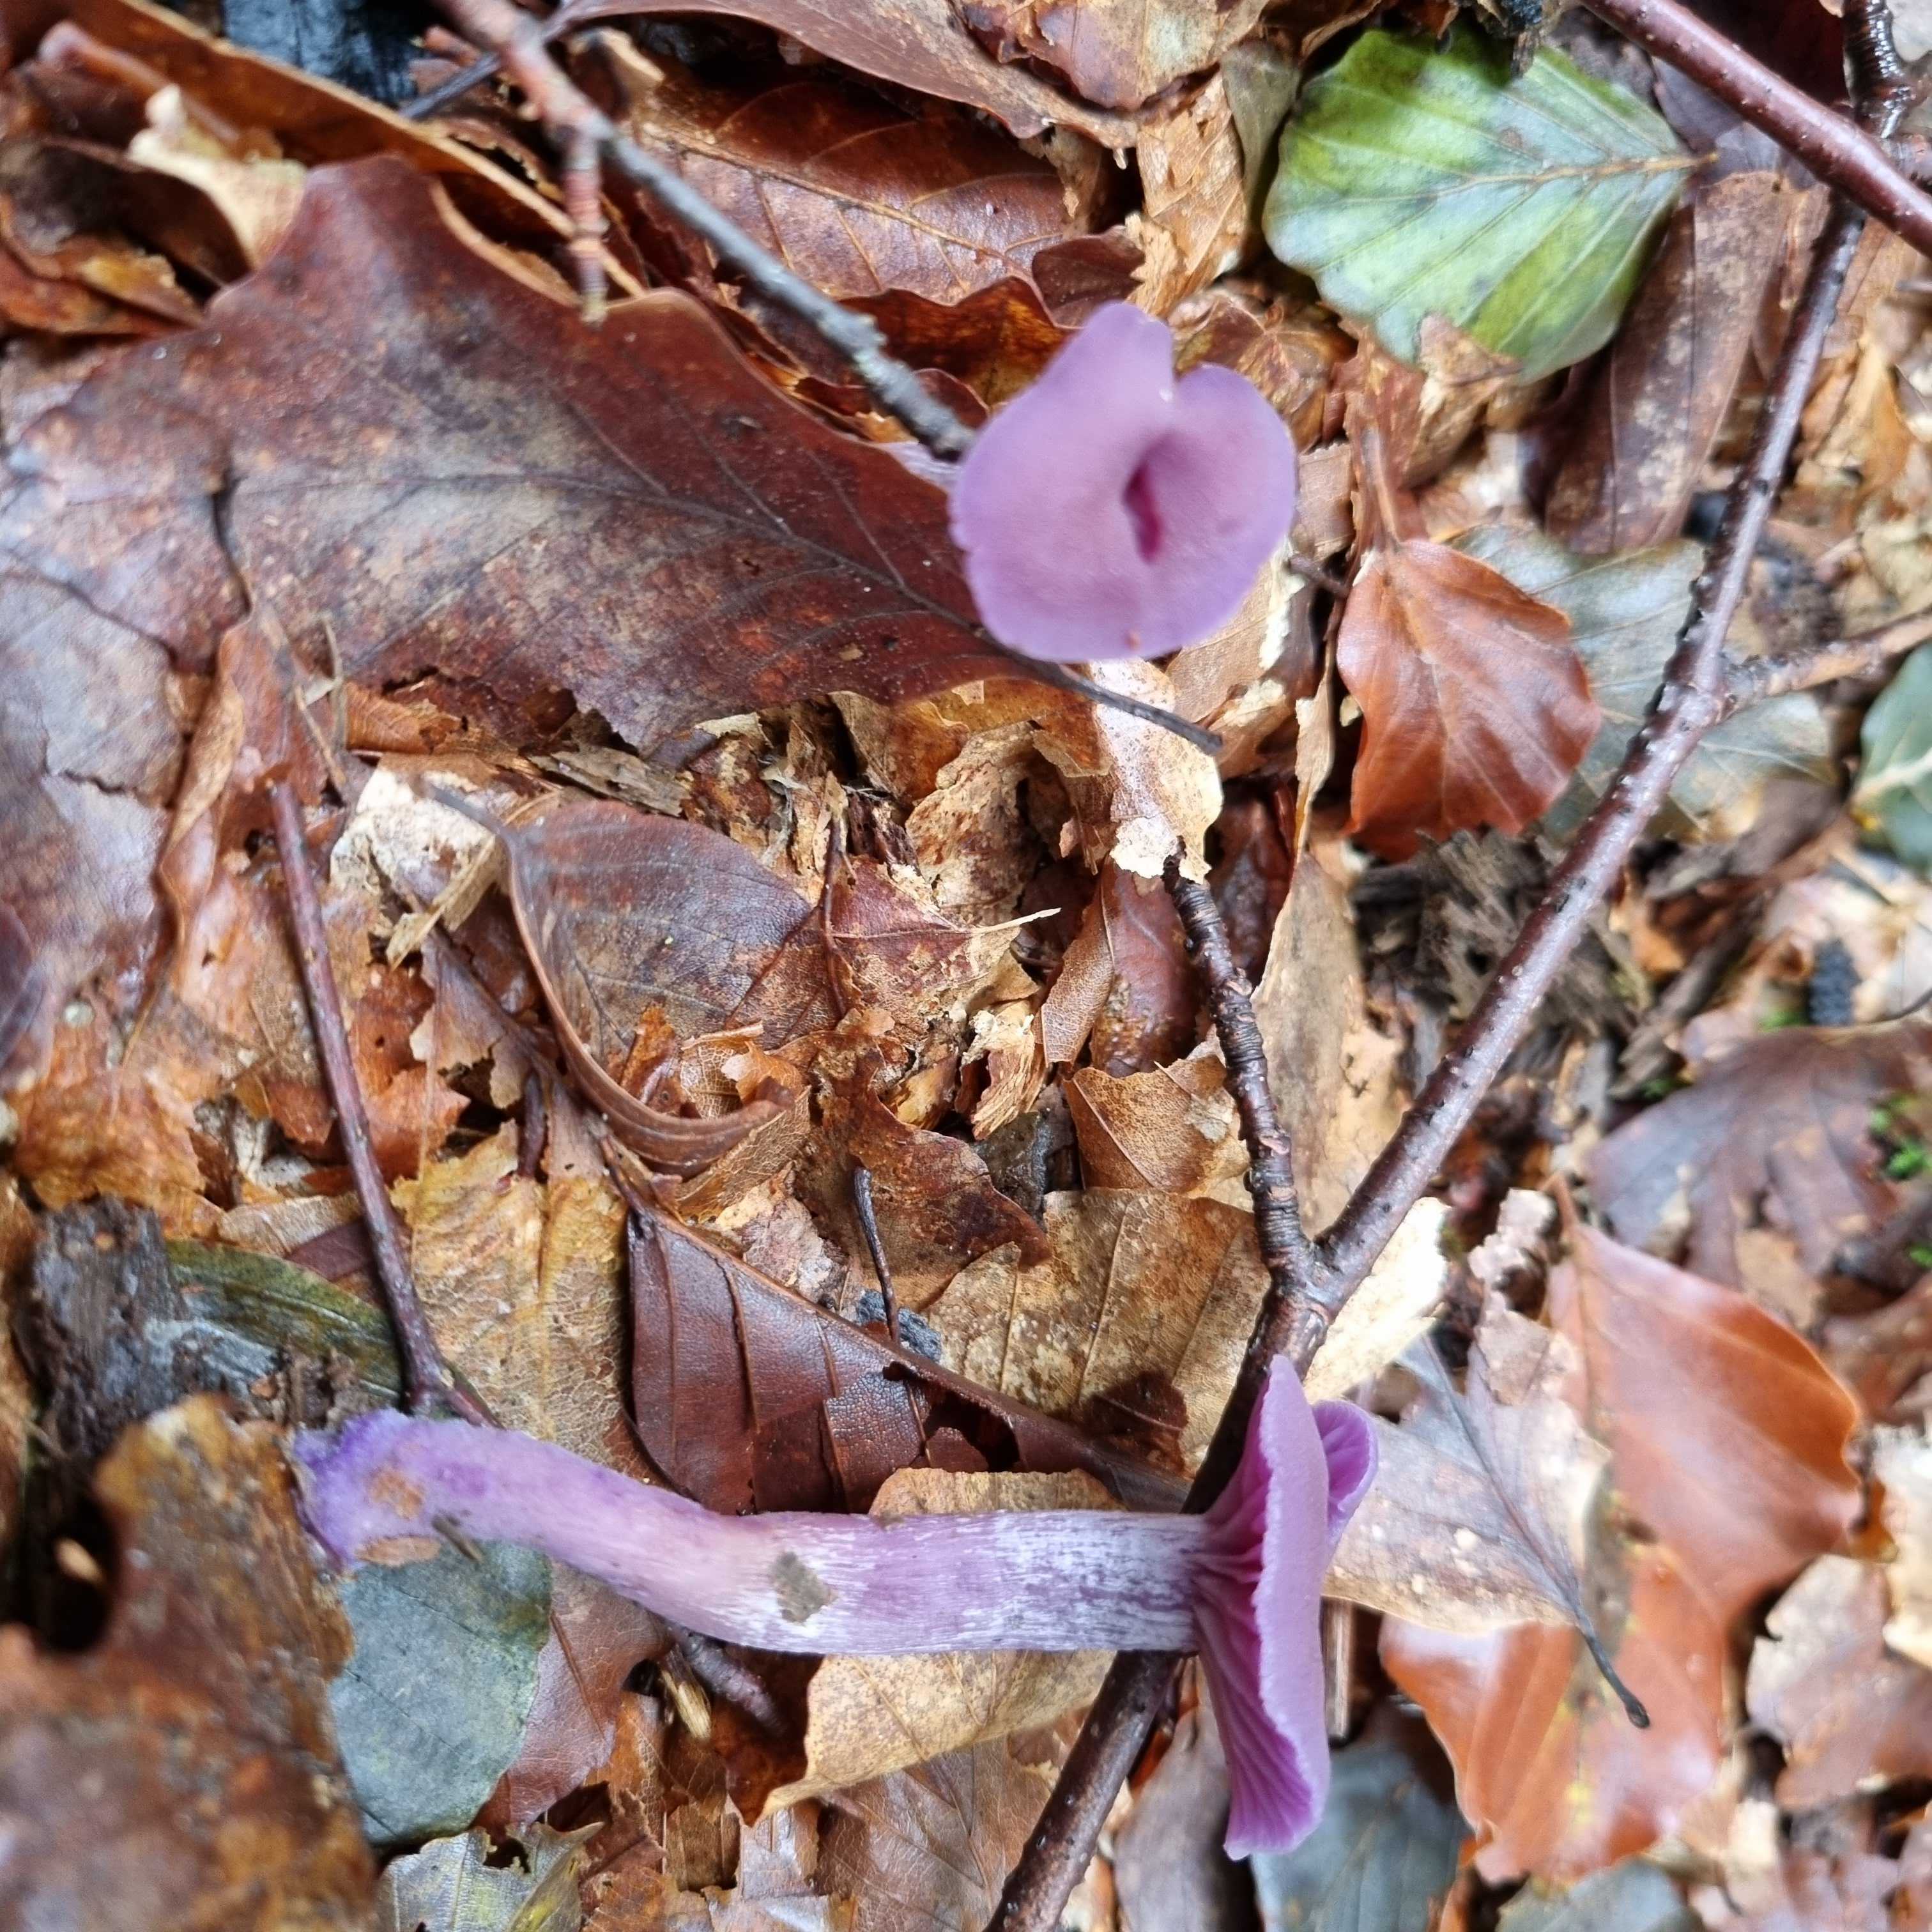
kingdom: Fungi
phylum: Basidiomycota
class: Agaricomycetes
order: Agaricales
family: Hydnangiaceae
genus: Laccaria
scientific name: Laccaria amethystina
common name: violet ametysthat
